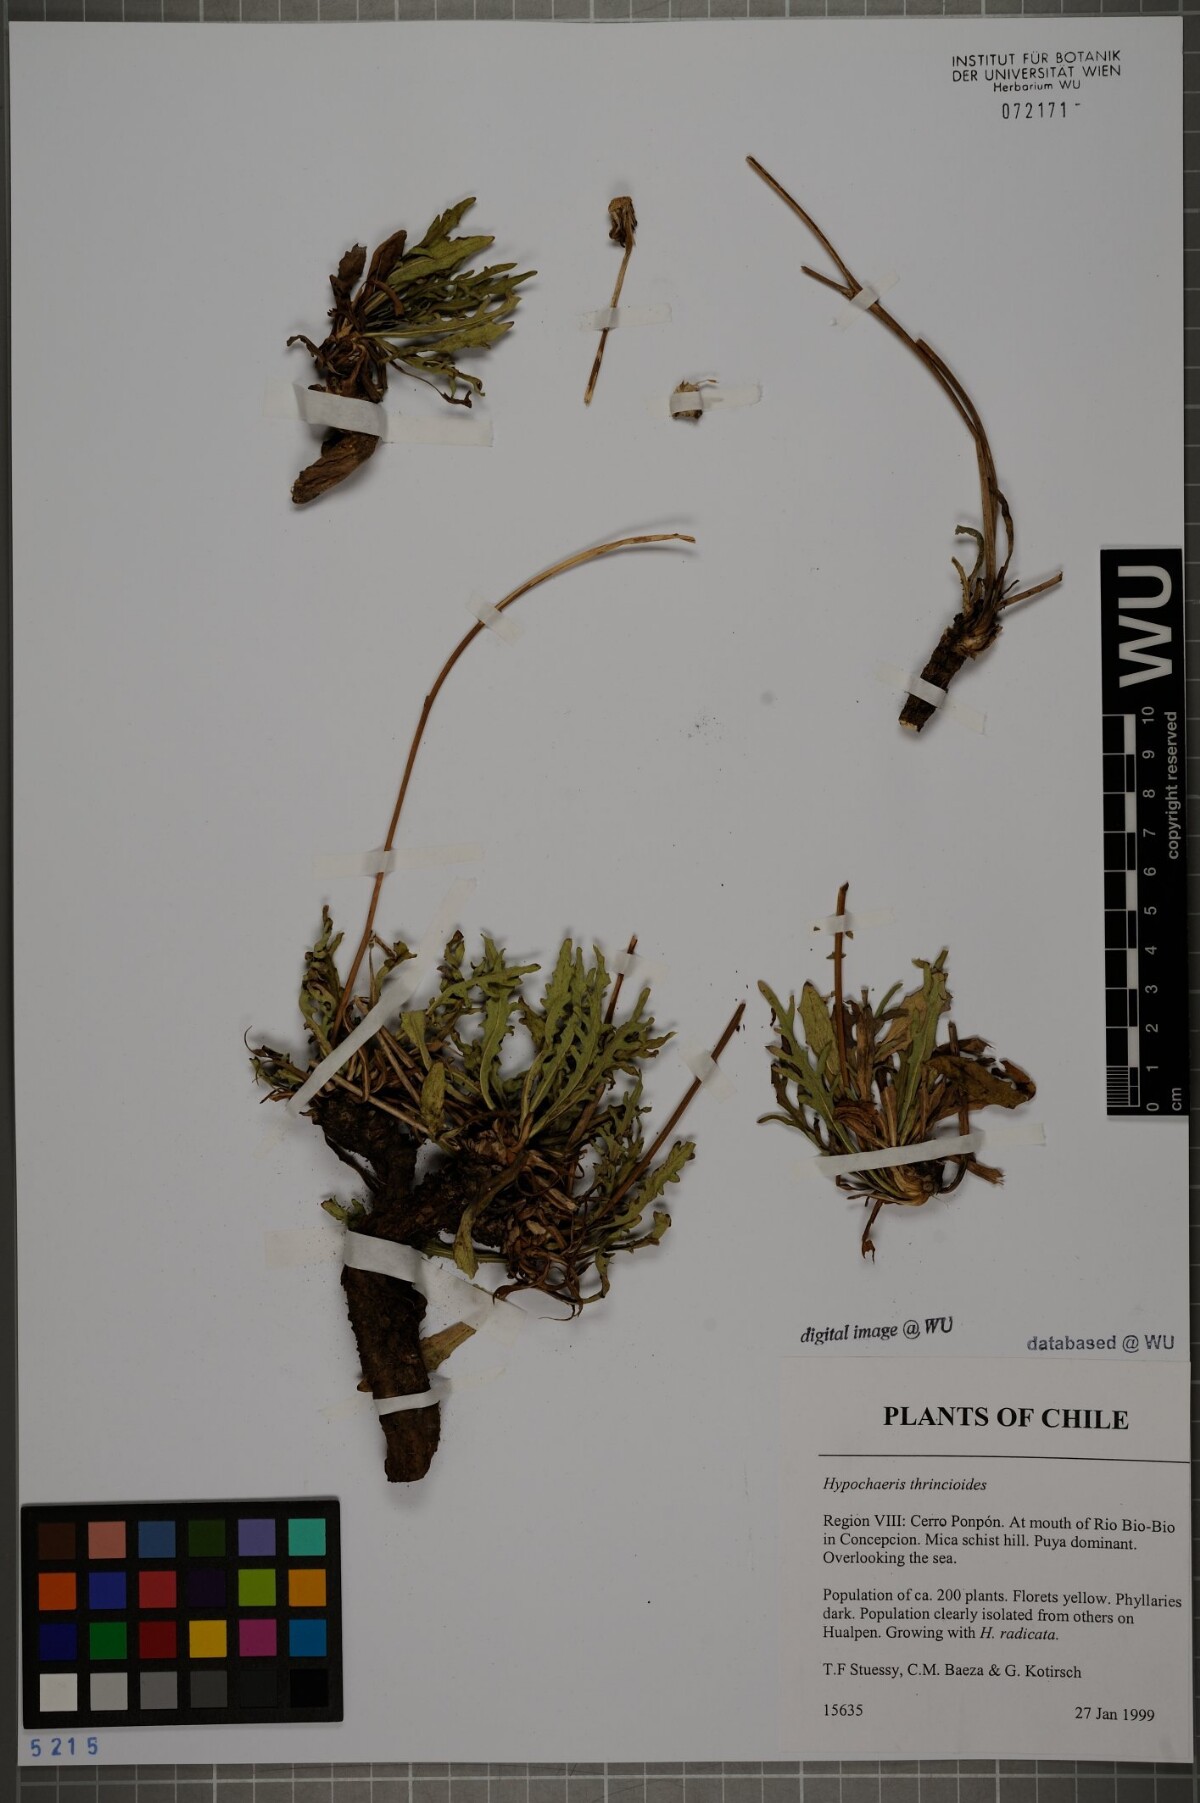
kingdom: Plantae
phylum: Tracheophyta
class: Magnoliopsida
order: Asterales
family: Asteraceae
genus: Hypochaeris
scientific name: Hypochaeris apargioides
